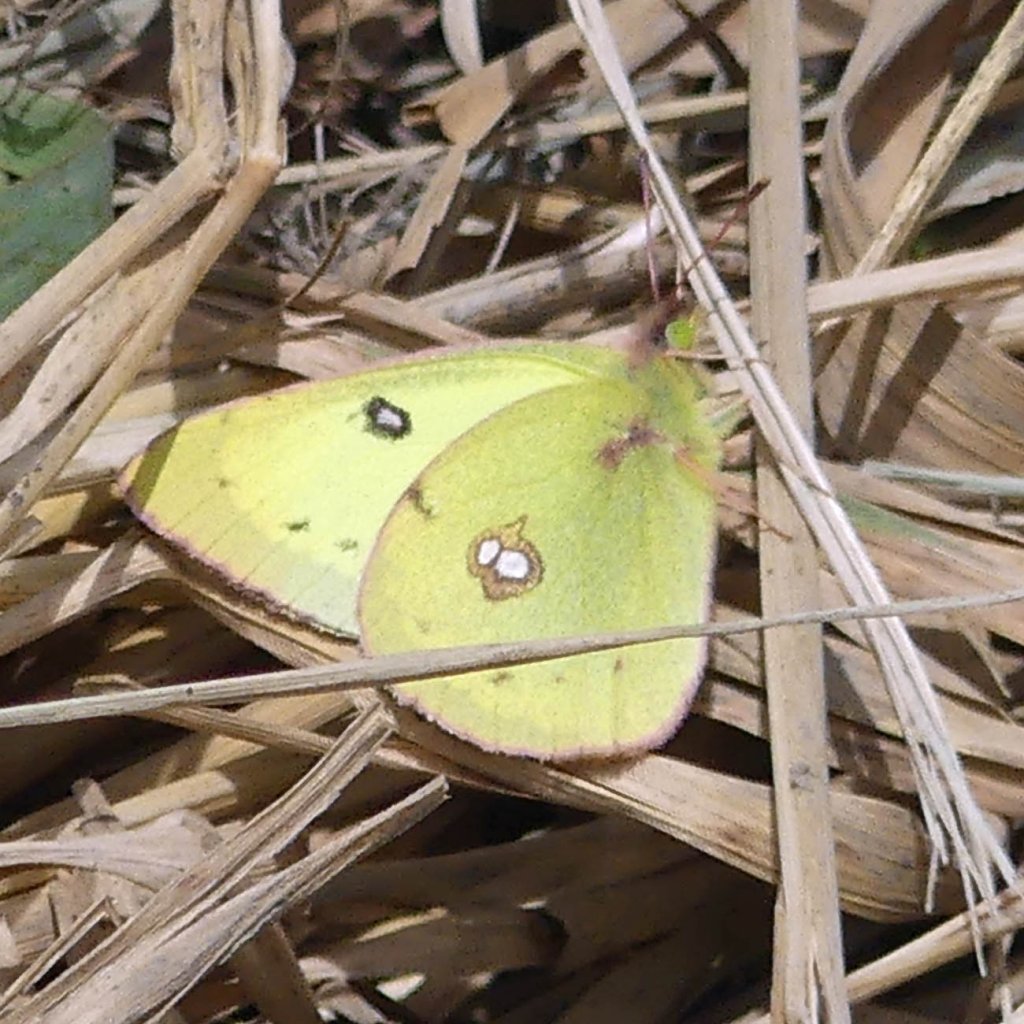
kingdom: Animalia
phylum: Arthropoda
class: Insecta
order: Lepidoptera
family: Pieridae
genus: Colias
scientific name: Colias philodice
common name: Clouded Sulphur
